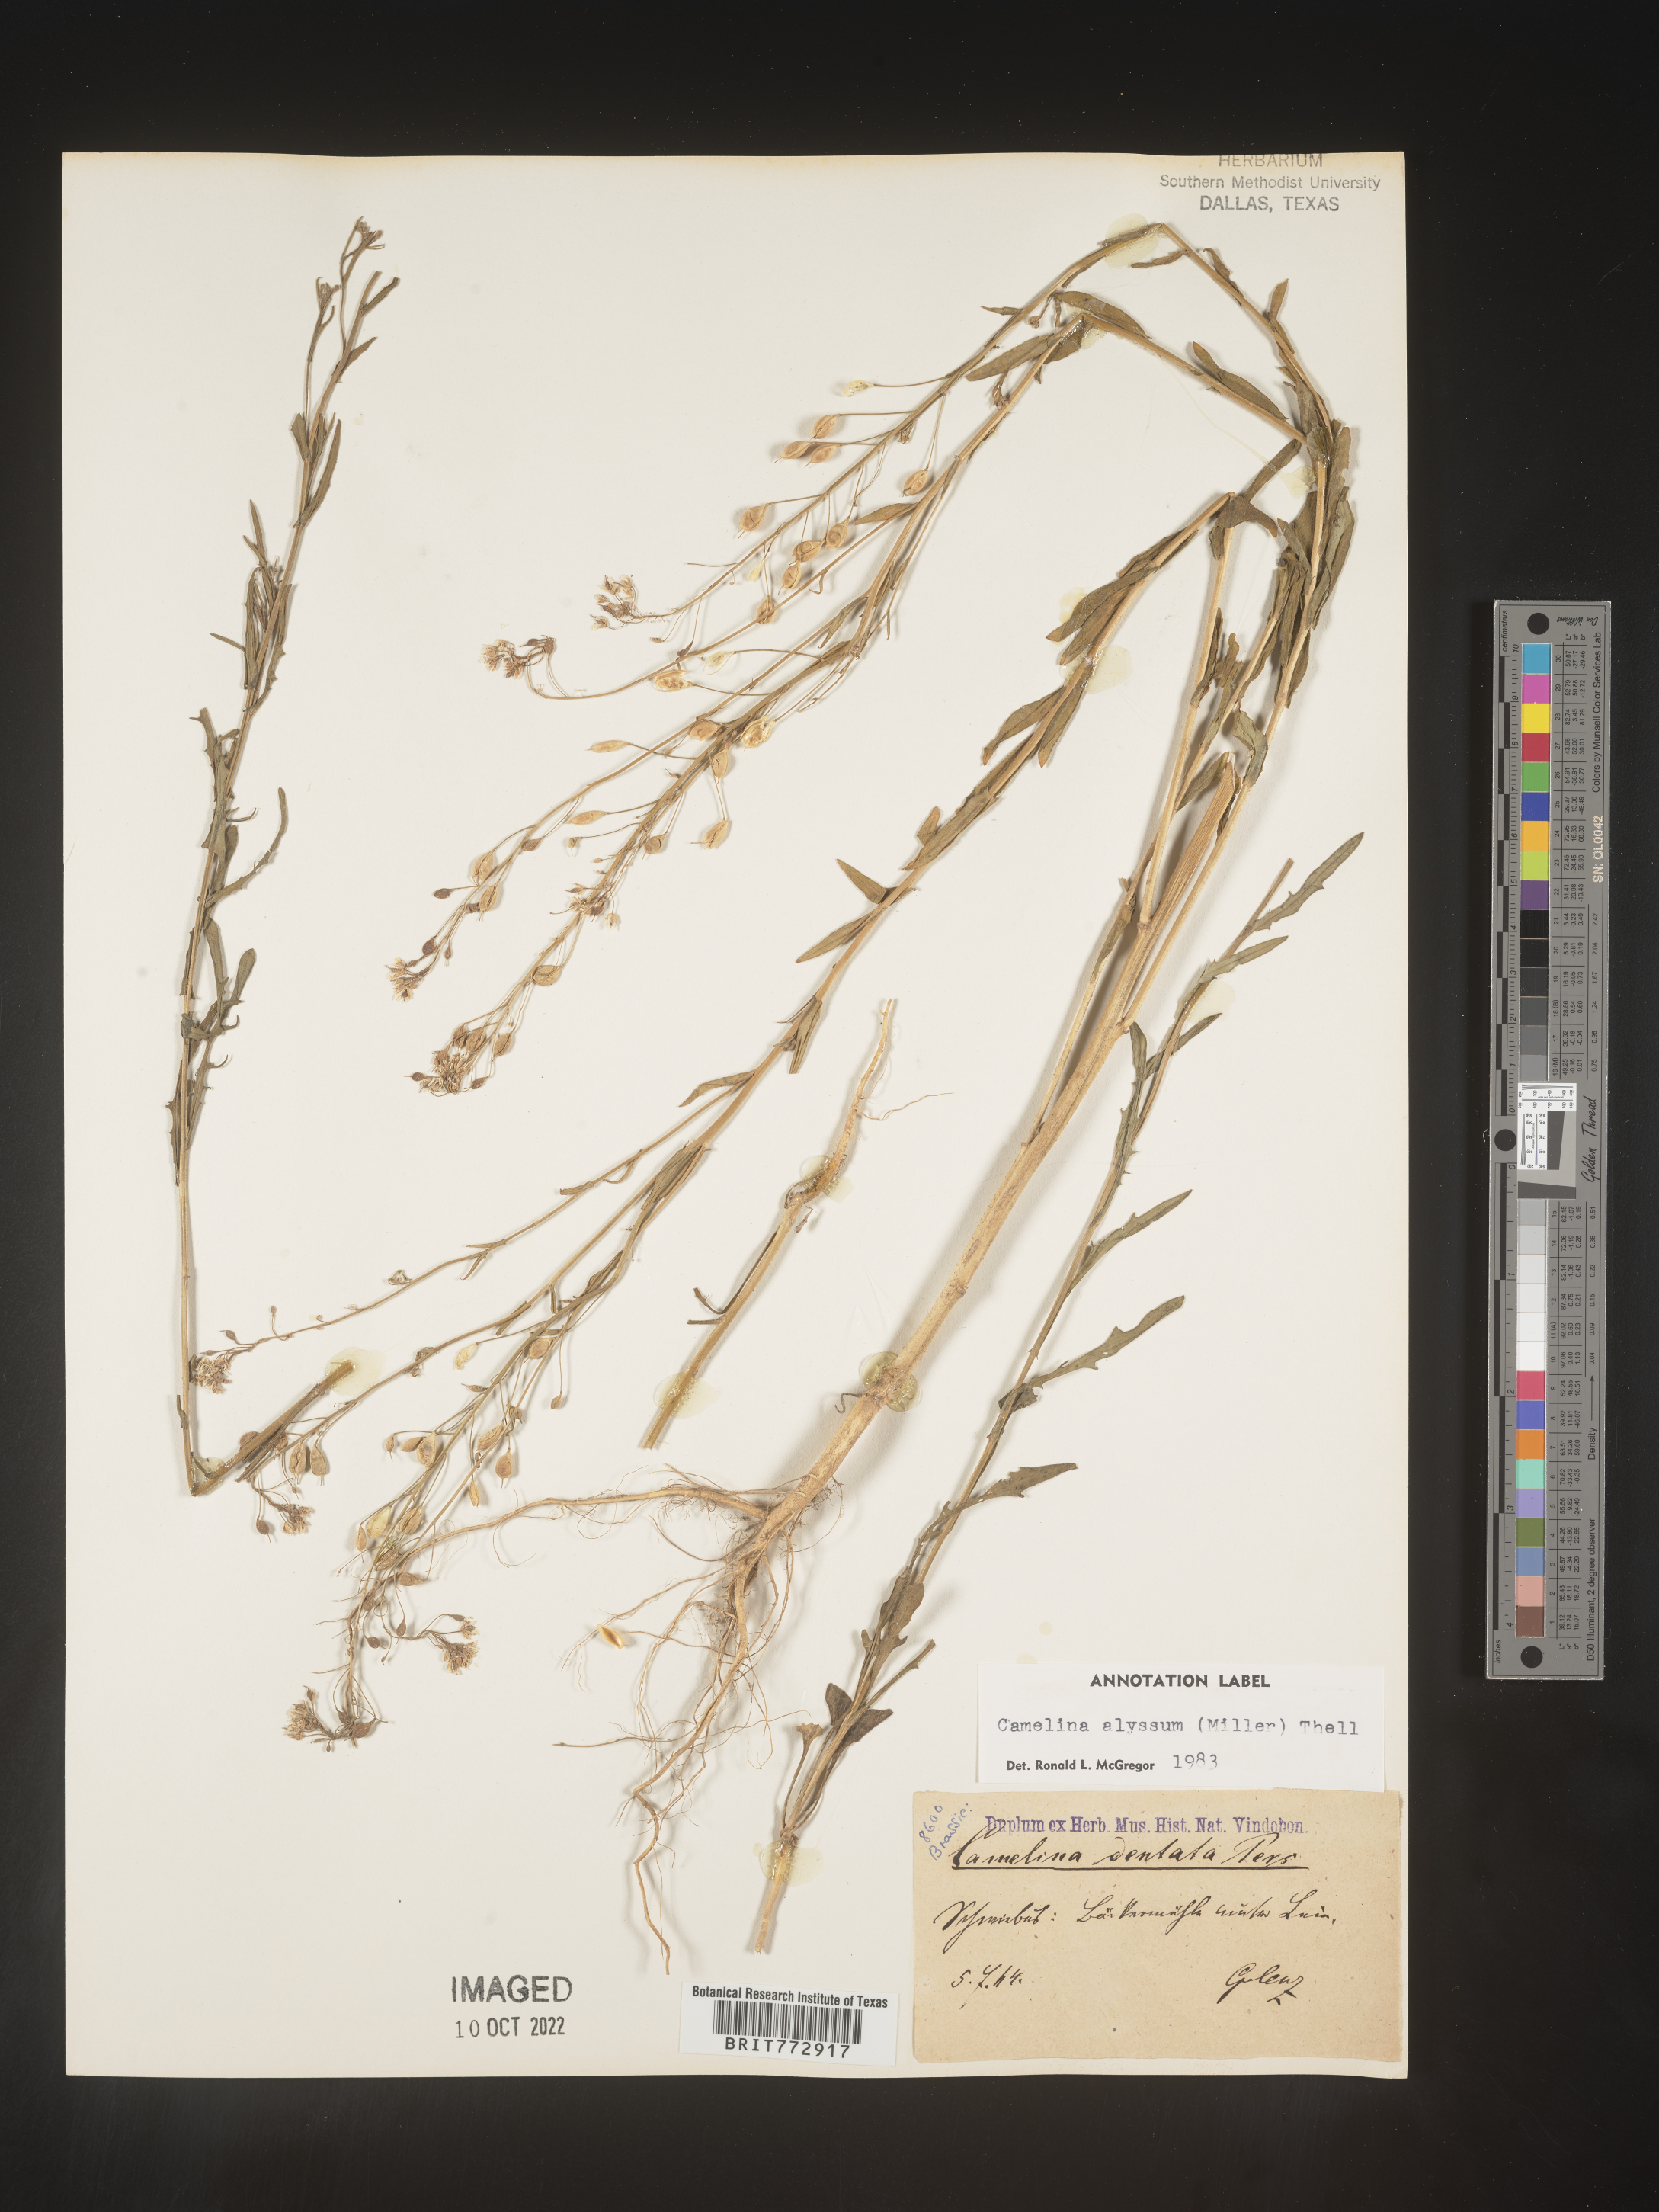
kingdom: Plantae
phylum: Tracheophyta
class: Magnoliopsida
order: Brassicales
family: Brassicaceae
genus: Camelina
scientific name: Camelina
